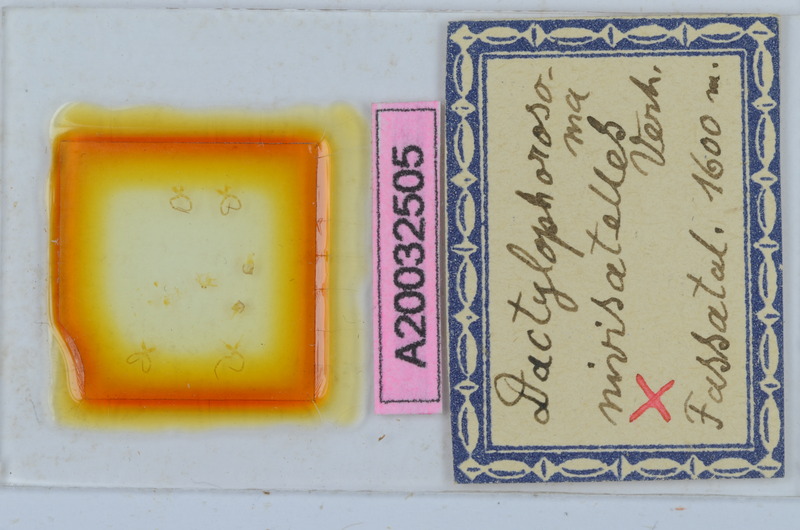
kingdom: Animalia
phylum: Arthropoda
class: Diplopoda
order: Chordeumatida
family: Craspedosomatidae
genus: Dactylophorosoma
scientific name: Dactylophorosoma nivisatelles
